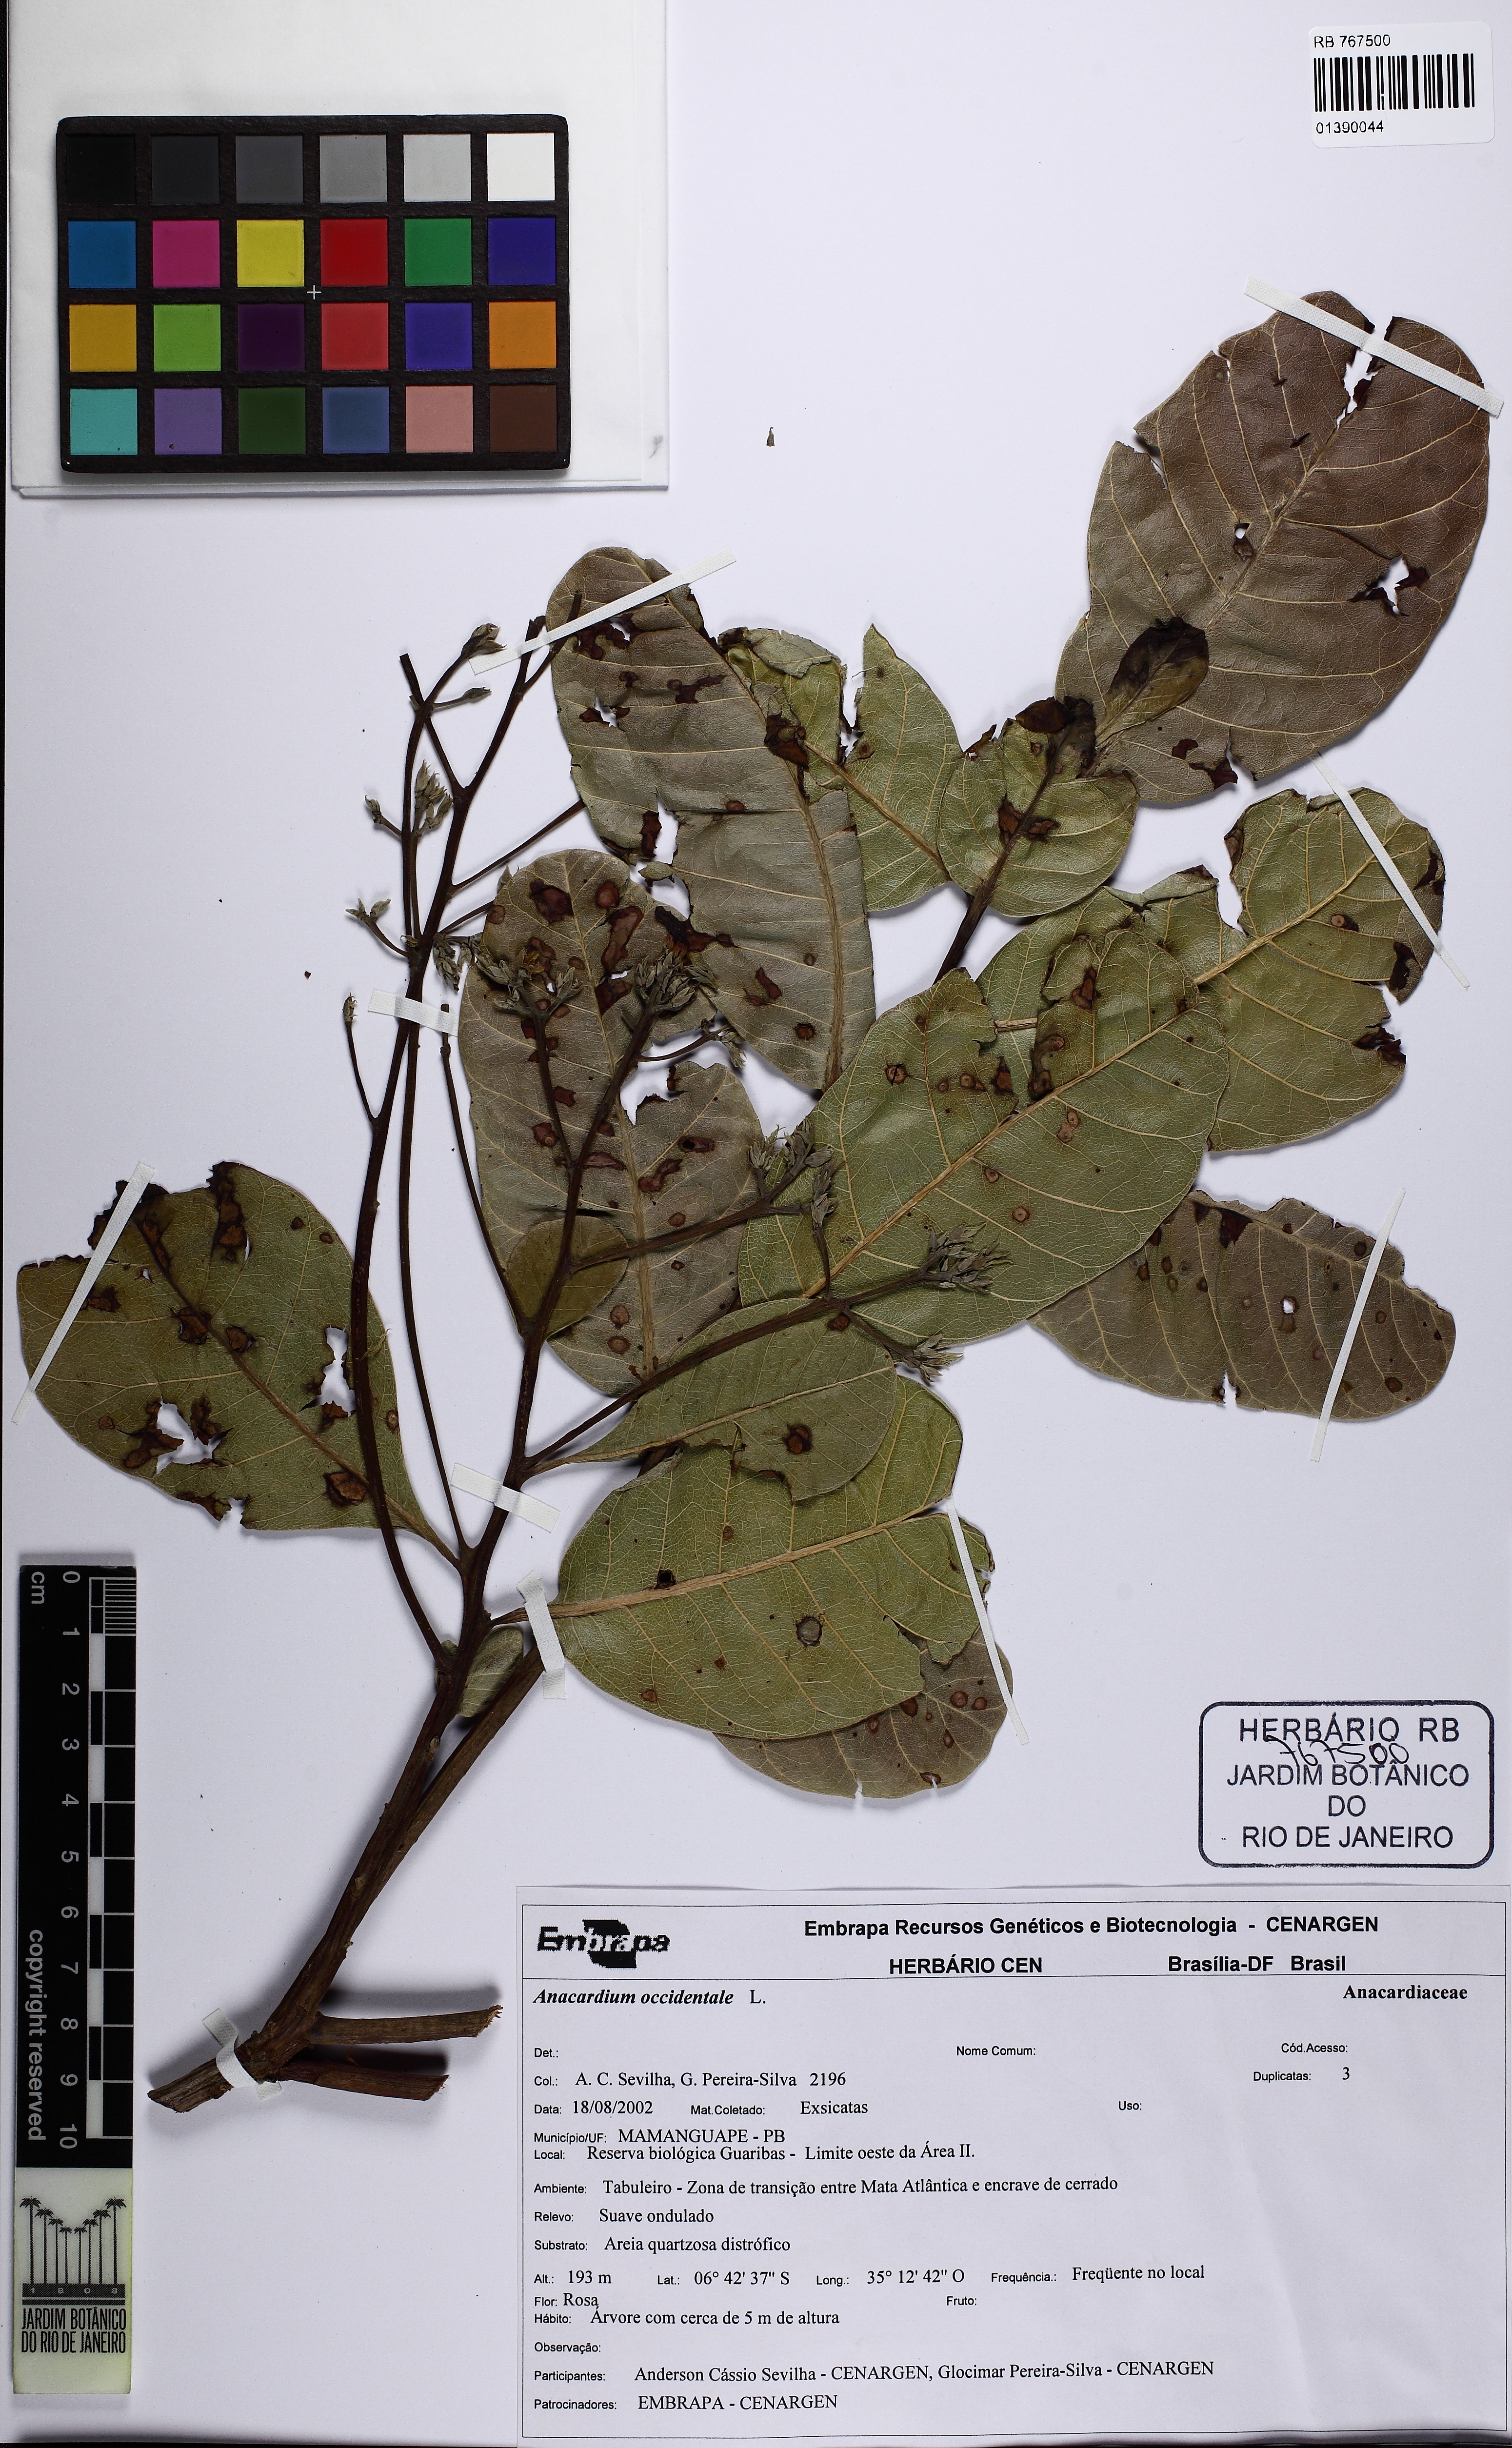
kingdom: Plantae
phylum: Tracheophyta
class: Magnoliopsida
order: Sapindales
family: Anacardiaceae
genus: Anacardium
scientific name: Anacardium occidentale
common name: Cashew
